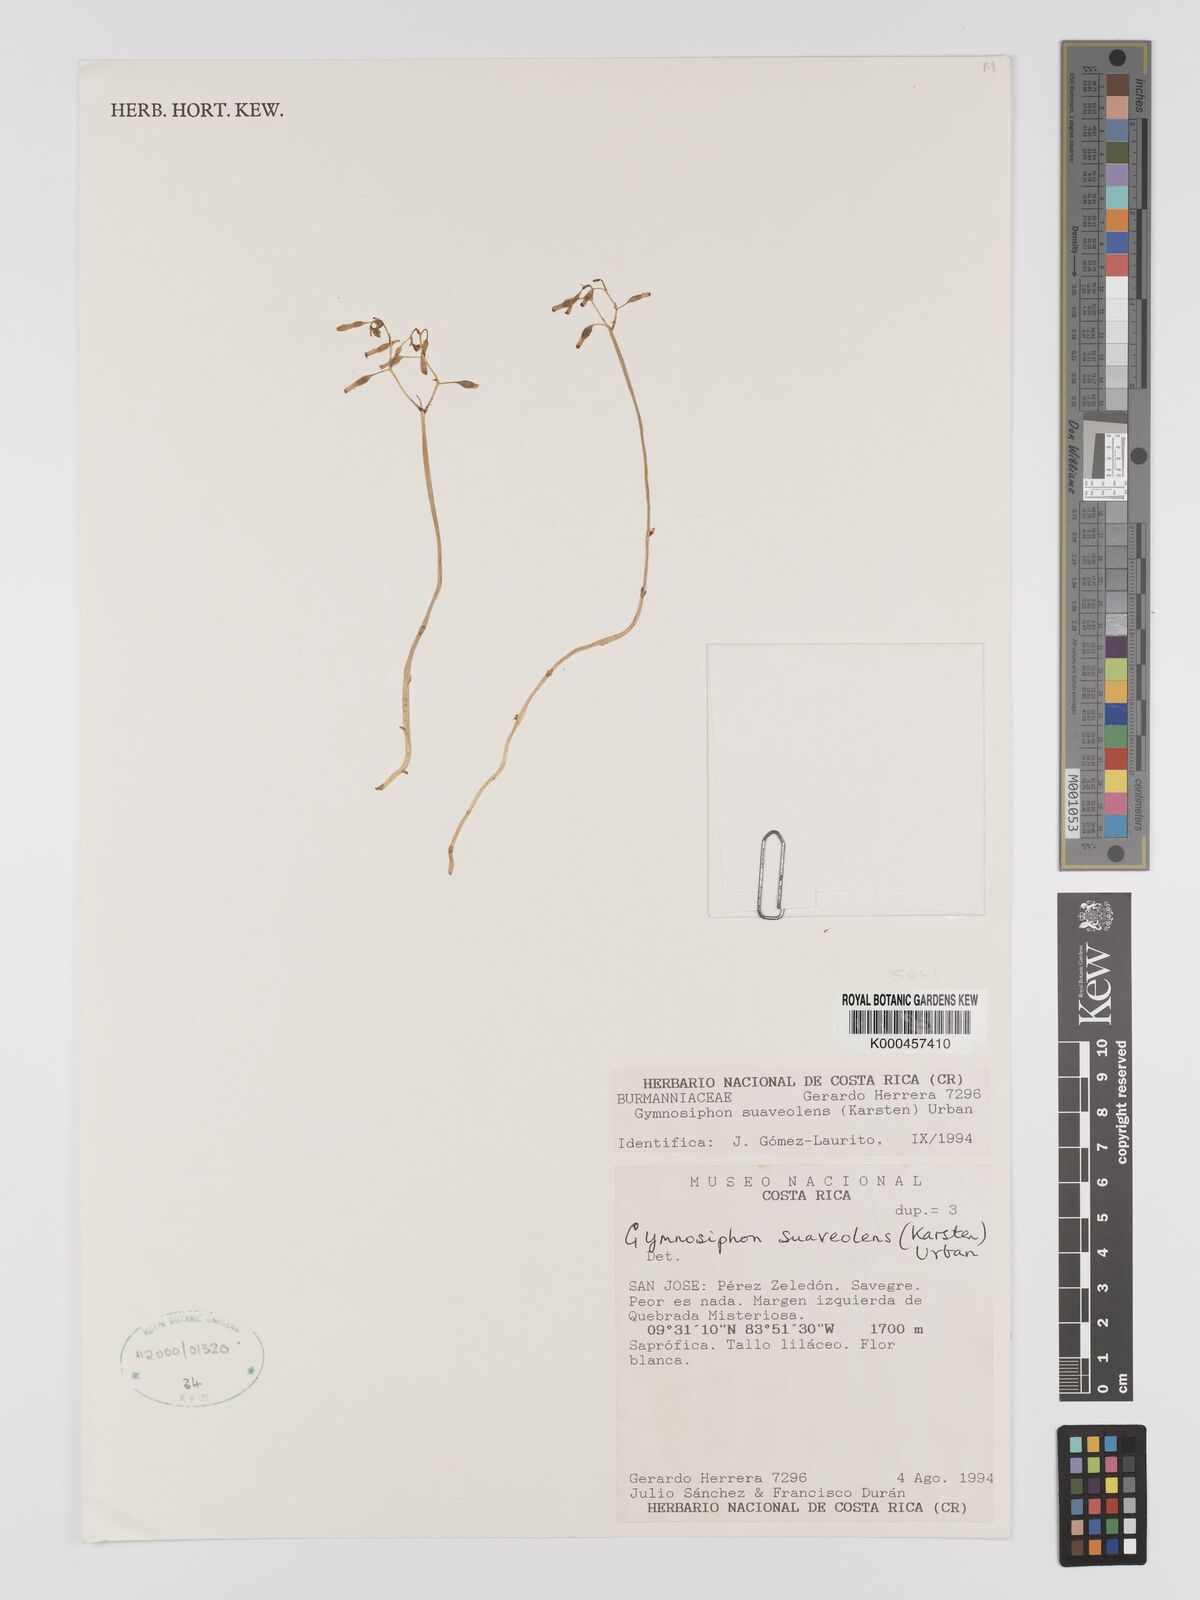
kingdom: Plantae
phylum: Tracheophyta
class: Liliopsida
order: Dioscoreales
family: Burmanniaceae
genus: Gymnosiphon
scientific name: Gymnosiphon suaveolens
